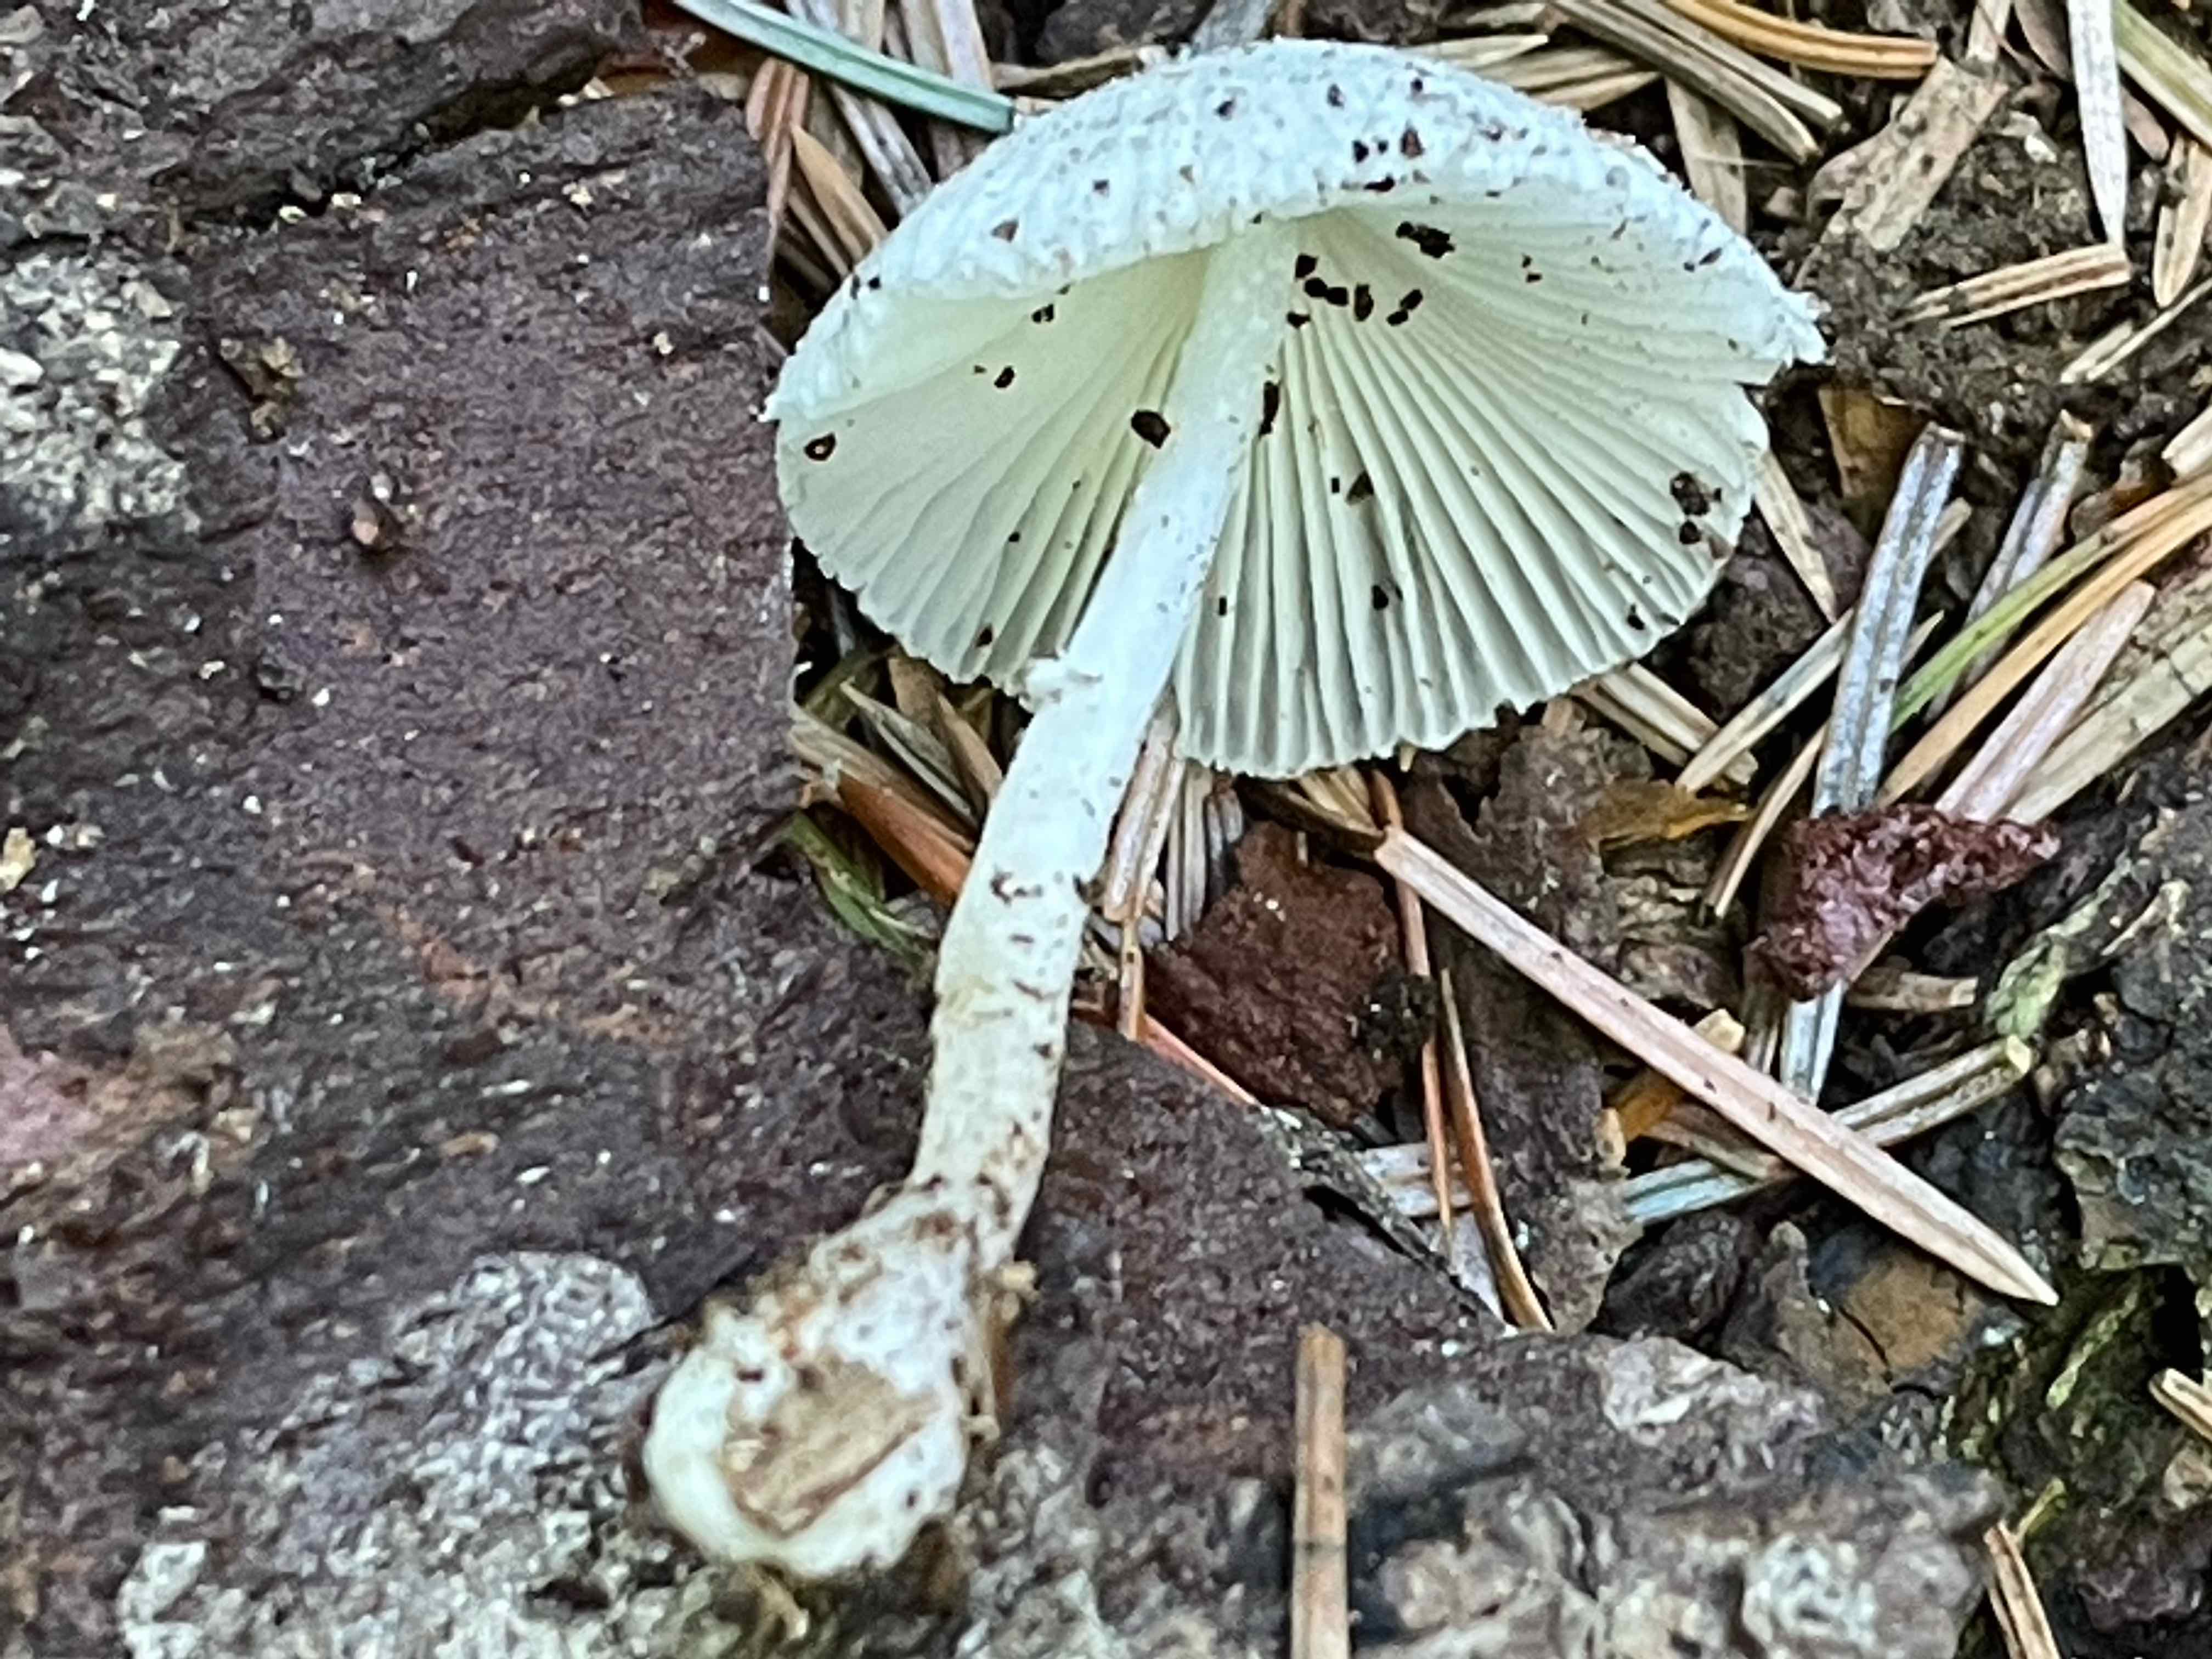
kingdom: Fungi
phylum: Basidiomycota
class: Agaricomycetes
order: Agaricales
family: Agaricaceae
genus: Leucocoprinus
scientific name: Leucocoprinus brebissonii
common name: gråsort silkehat
